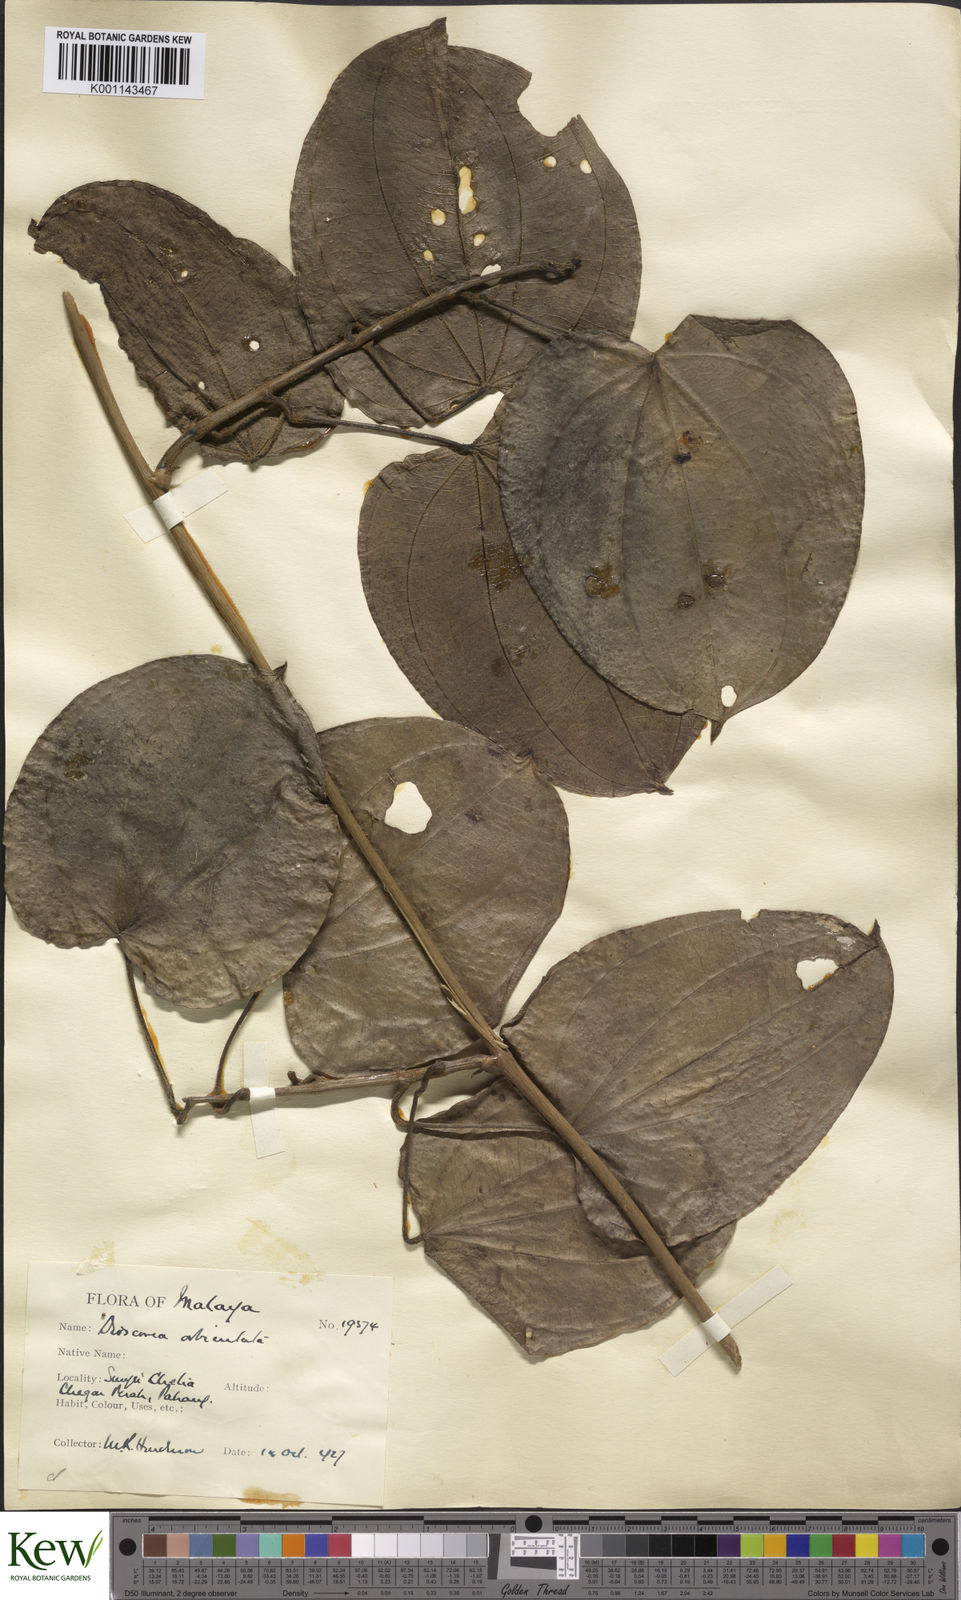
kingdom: Plantae
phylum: Tracheophyta
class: Liliopsida
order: Dioscoreales
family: Dioscoreaceae
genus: Dioscorea
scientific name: Dioscorea orbiculata
